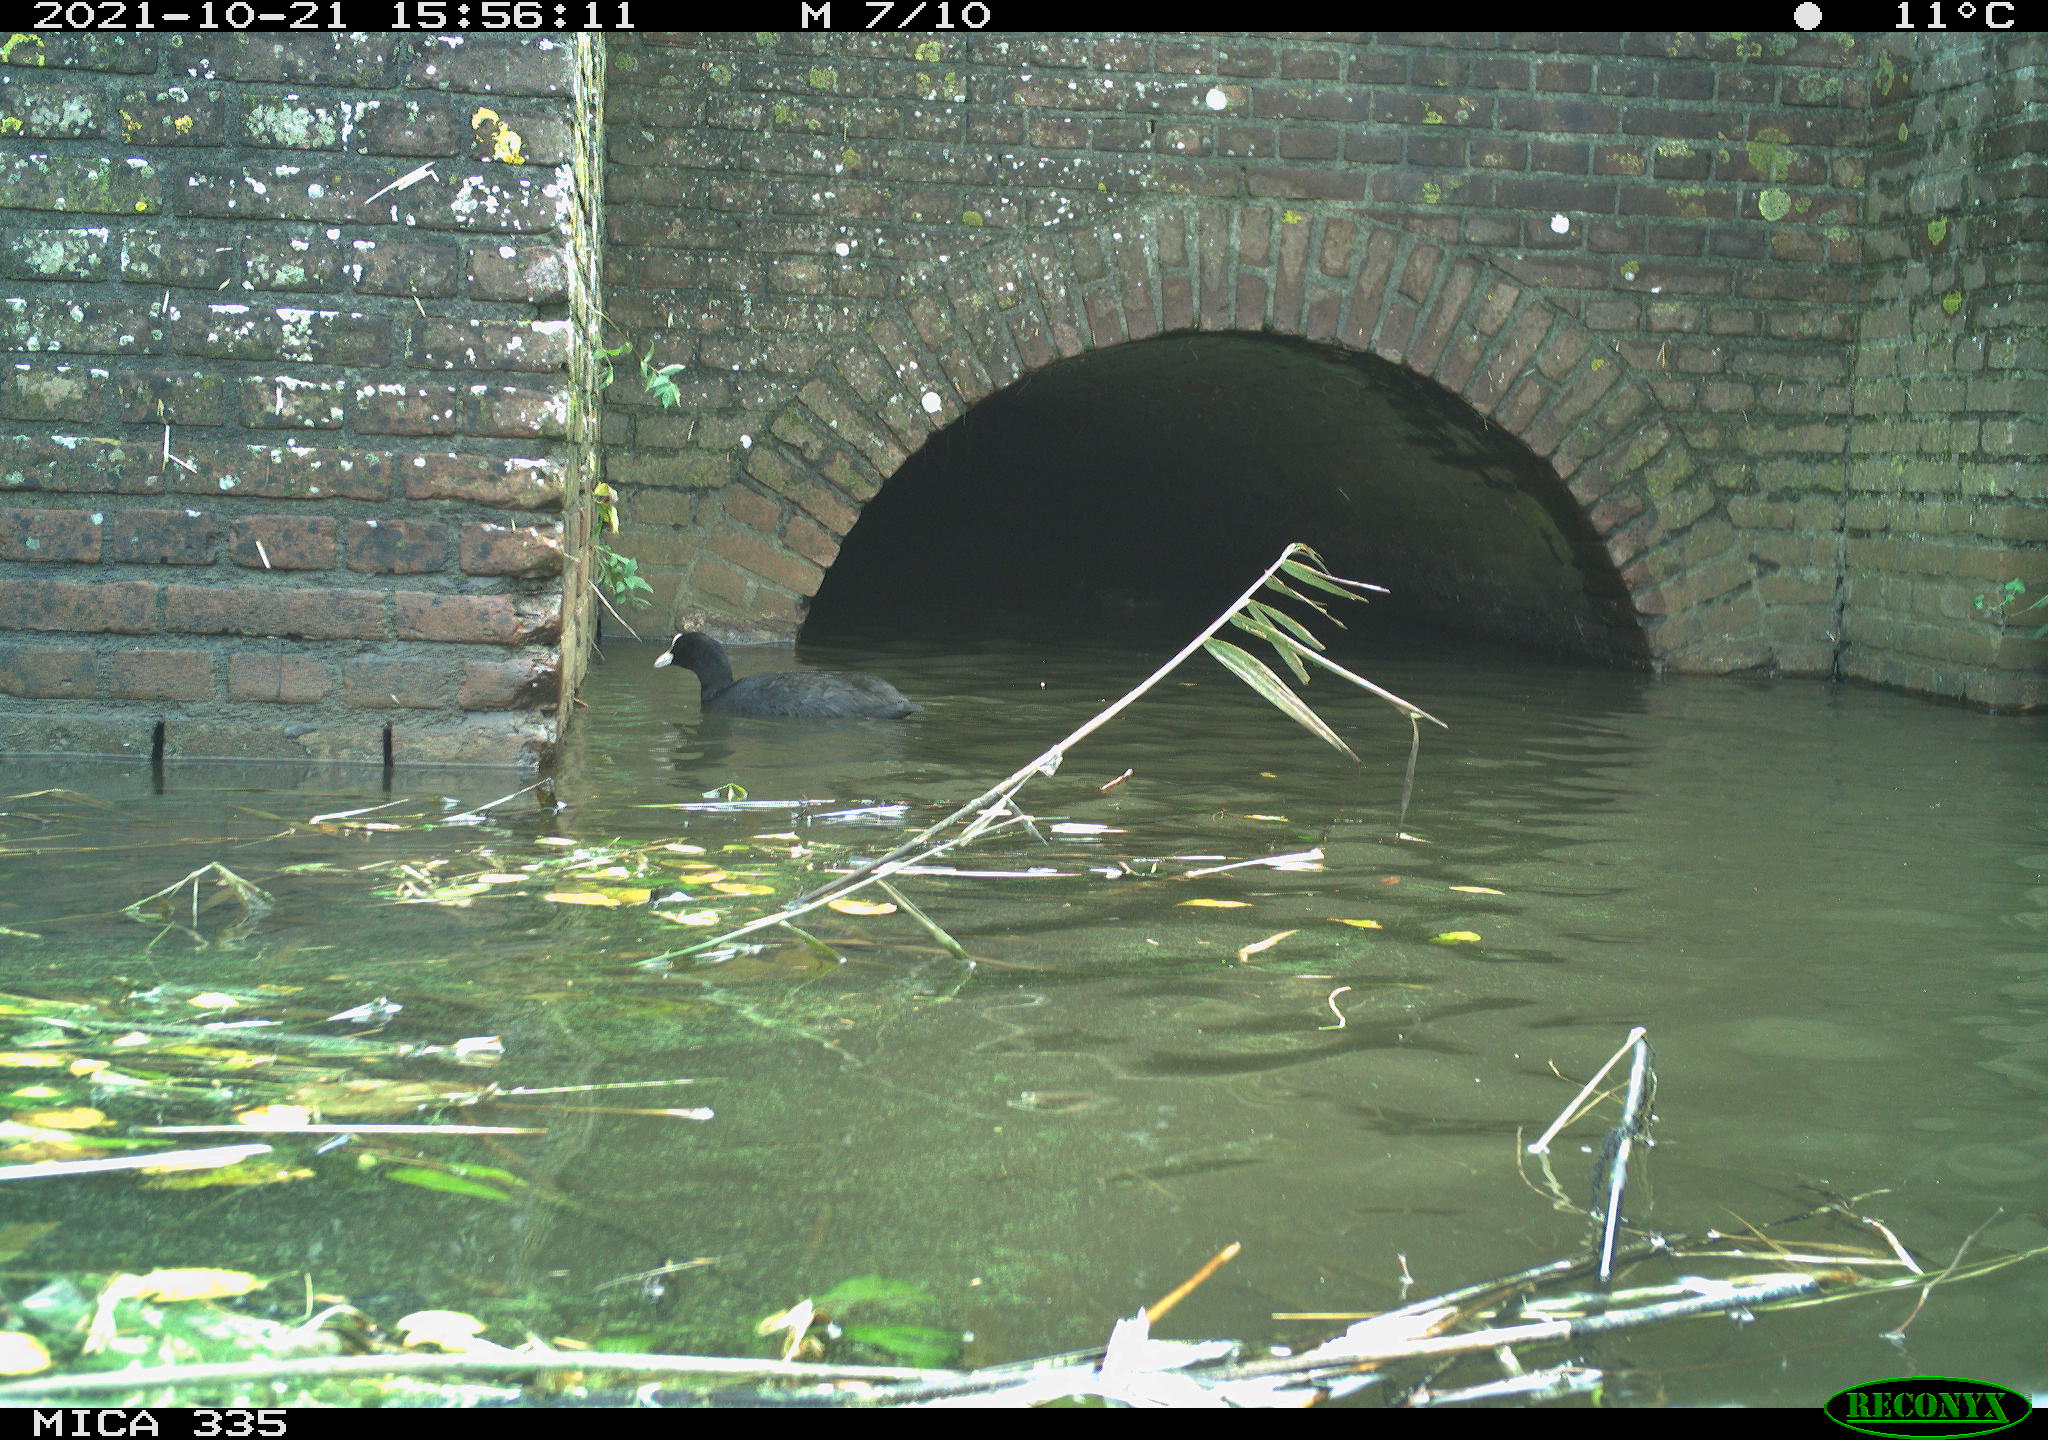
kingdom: Animalia
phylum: Chordata
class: Aves
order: Gruiformes
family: Rallidae
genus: Fulica
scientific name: Fulica atra
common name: Eurasian coot
